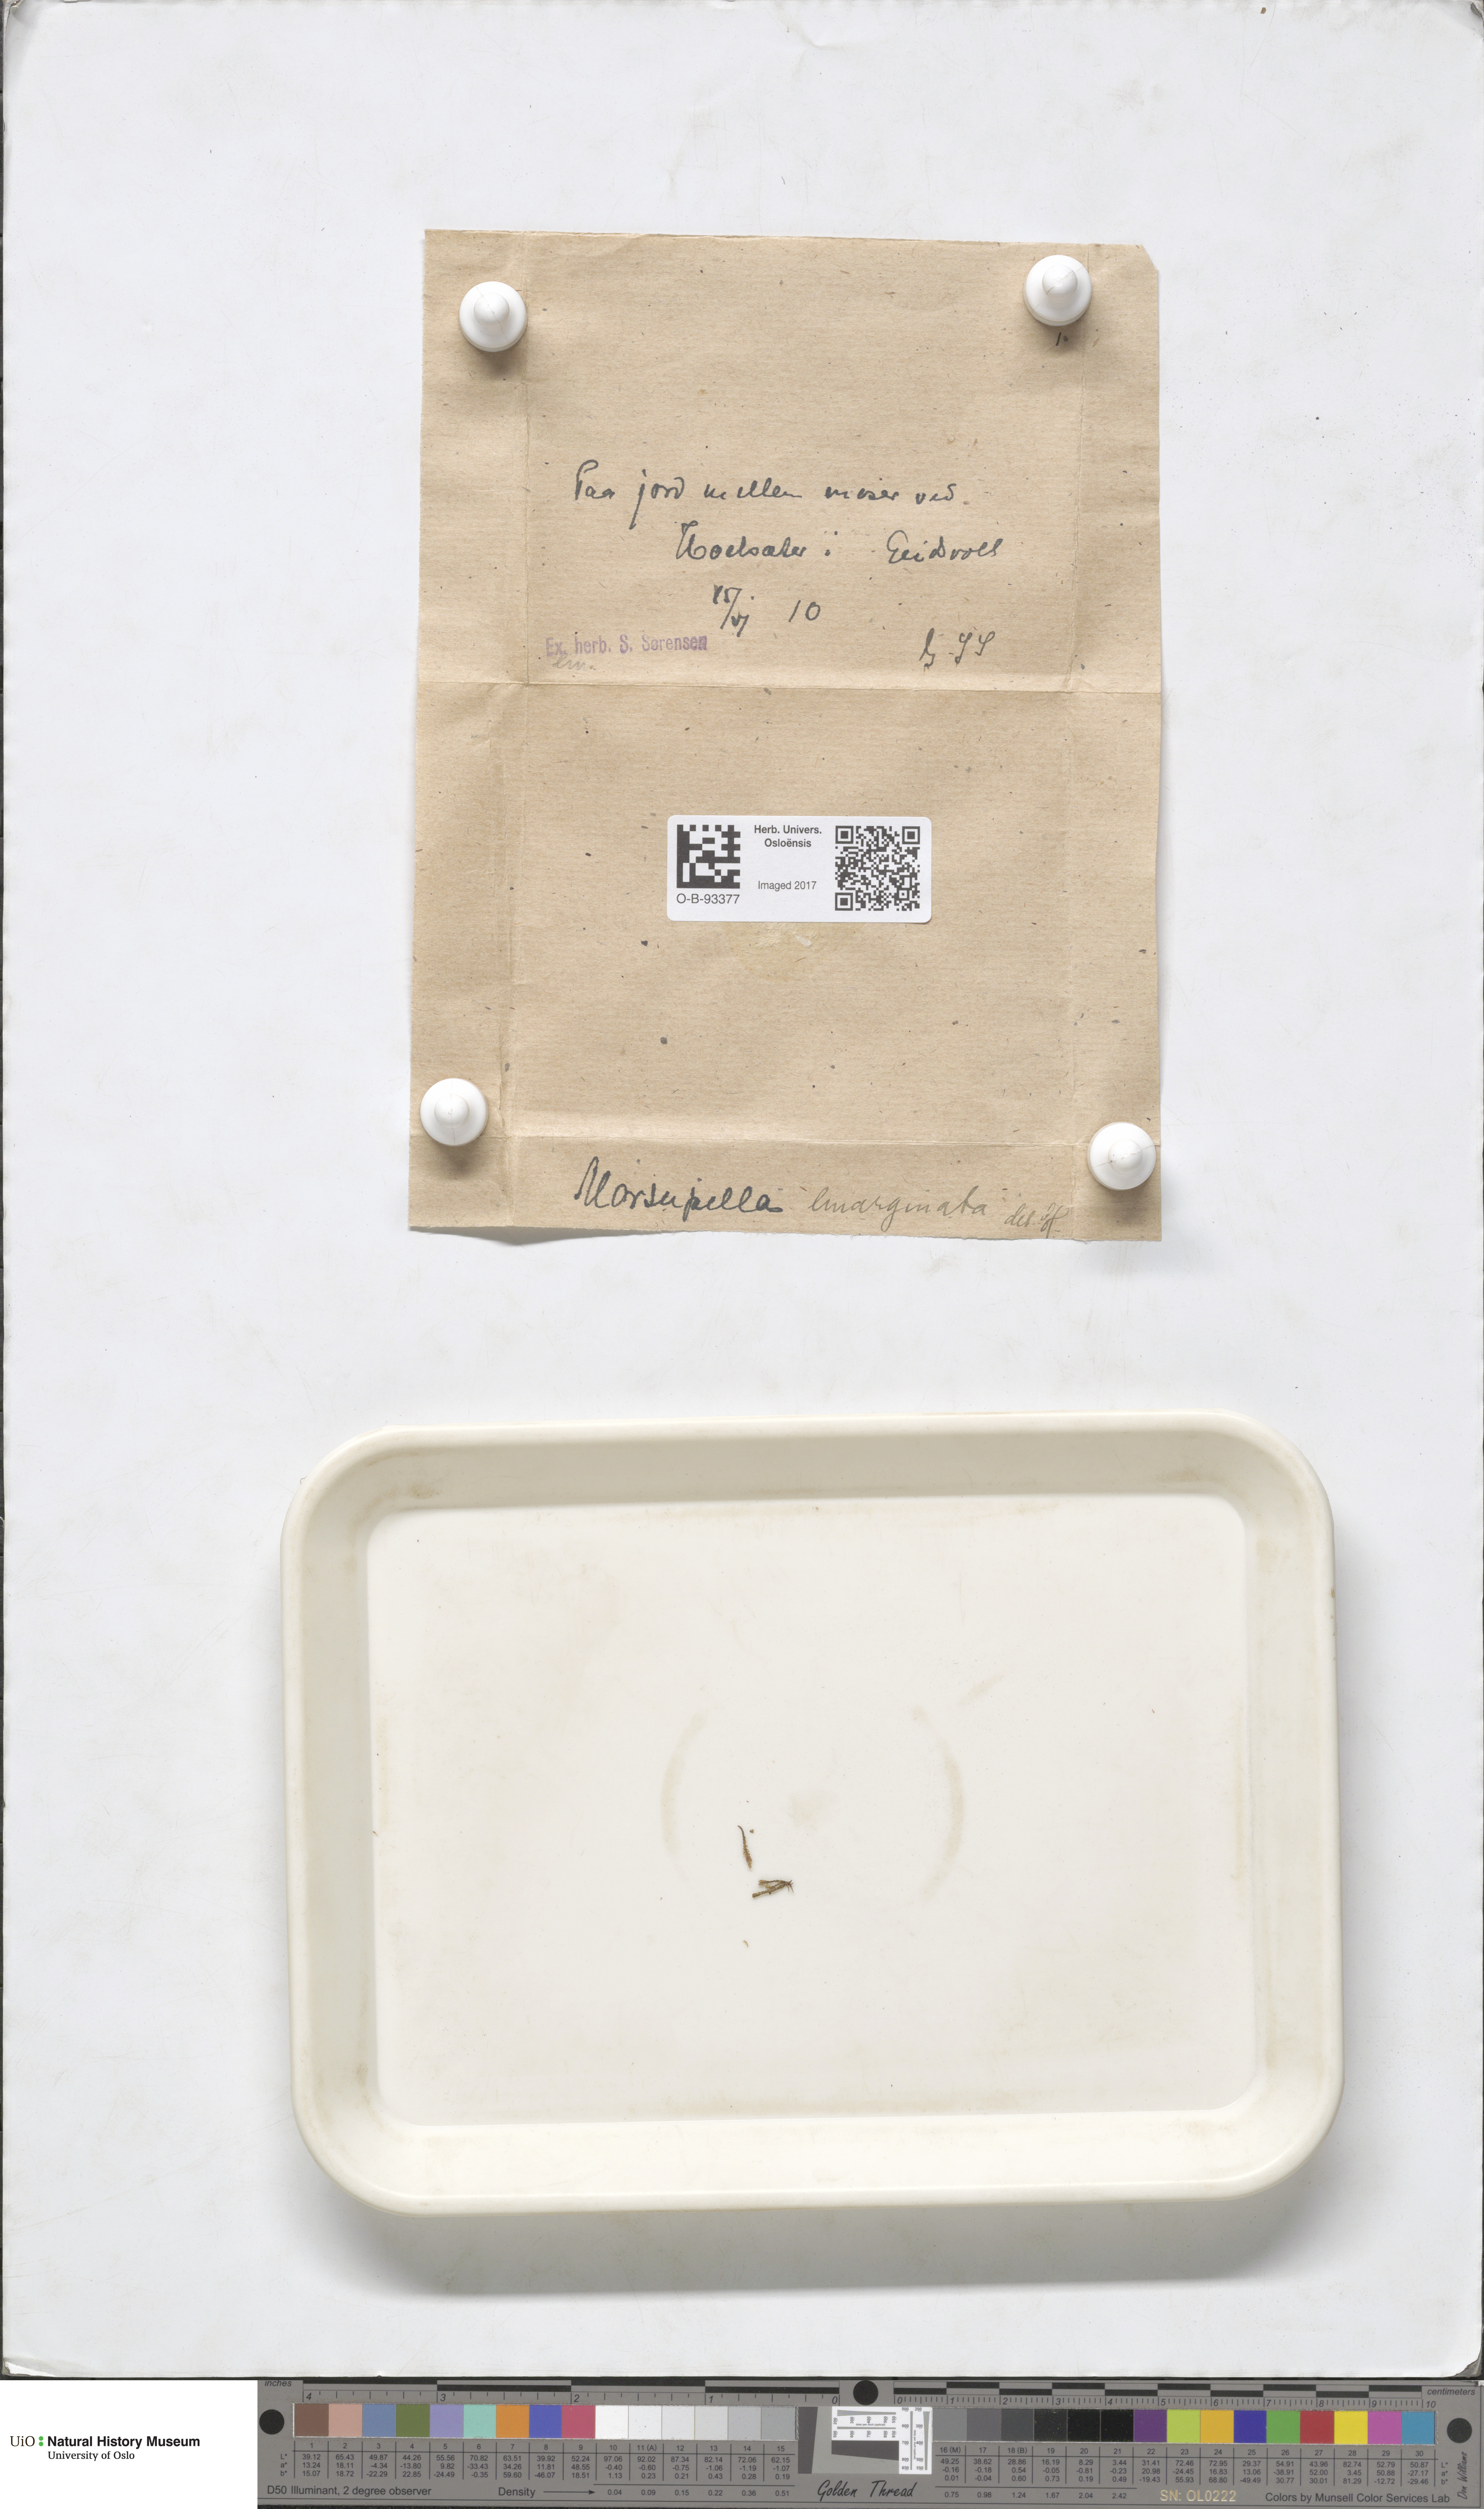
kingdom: Plantae
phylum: Marchantiophyta
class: Jungermanniopsida
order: Jungermanniales
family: Gymnomitriaceae
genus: Gymnomitrion
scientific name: Gymnomitrion brevissimum
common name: Snow rustwort
